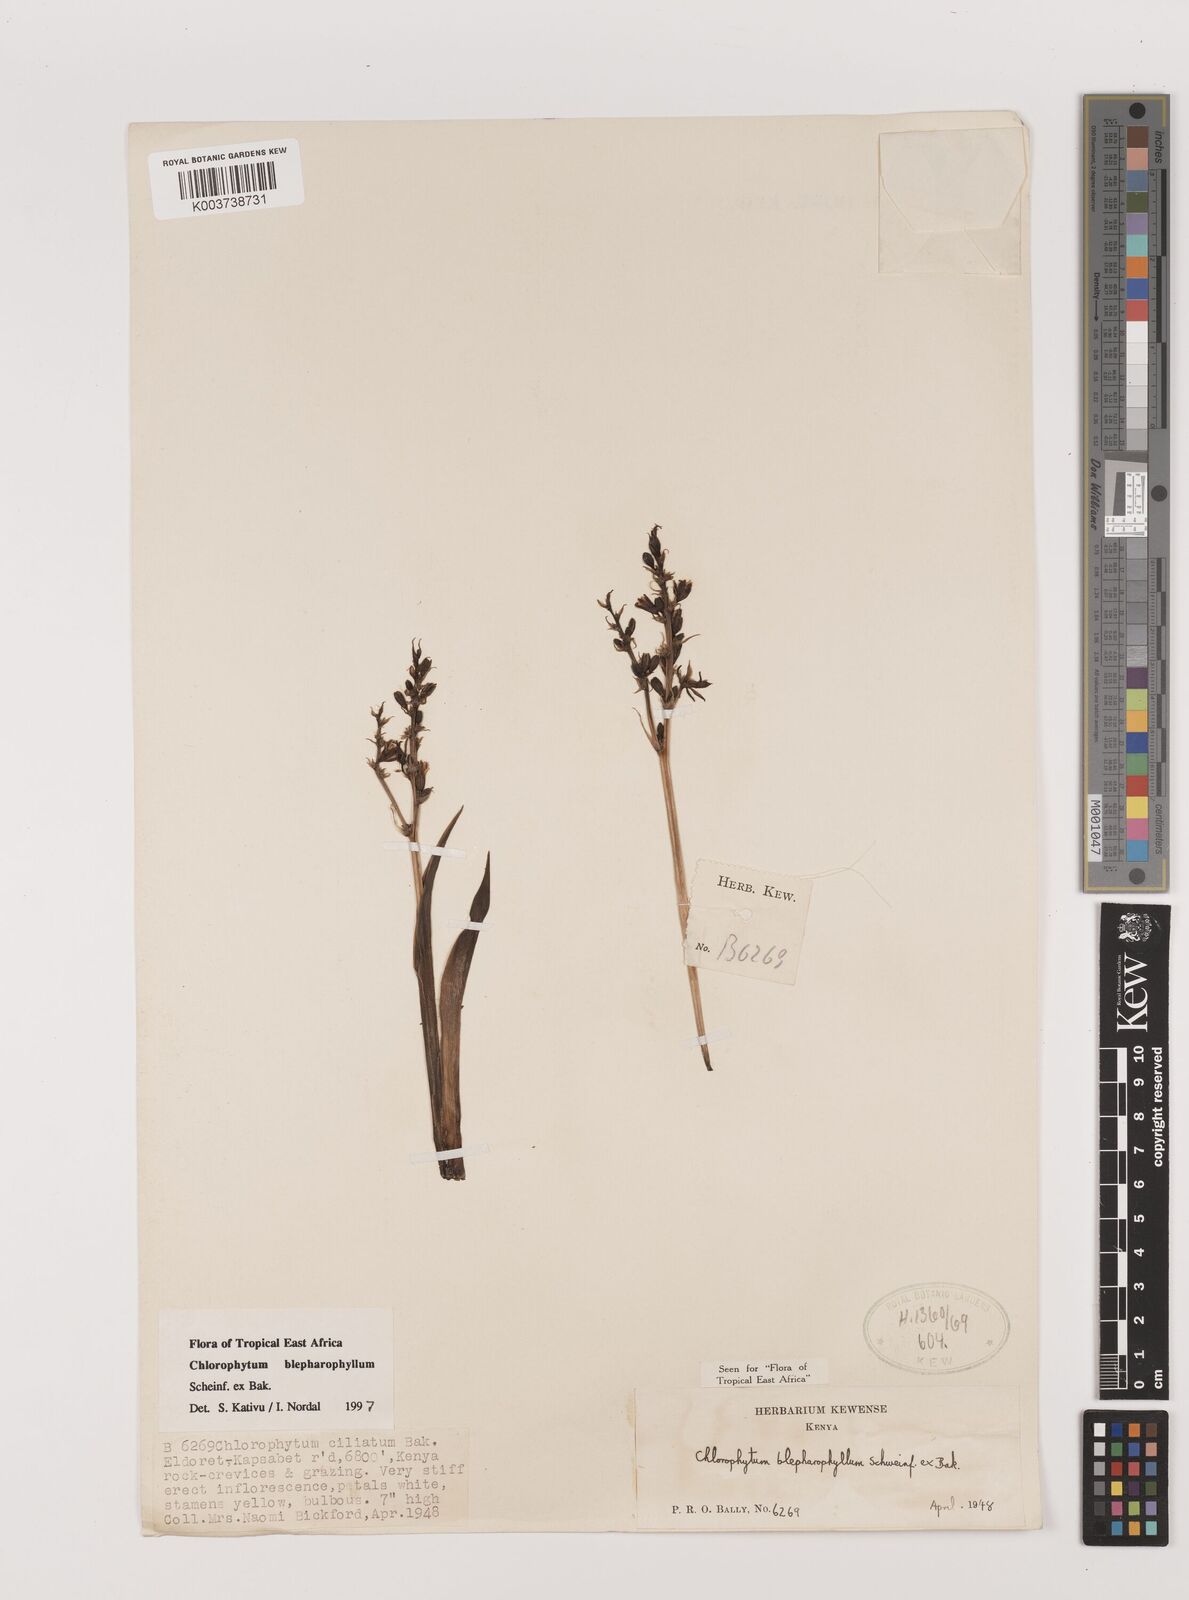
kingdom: Plantae
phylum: Tracheophyta
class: Liliopsida
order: Asparagales
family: Asparagaceae
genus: Chlorophytum
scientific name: Chlorophytum blepharophyllum
